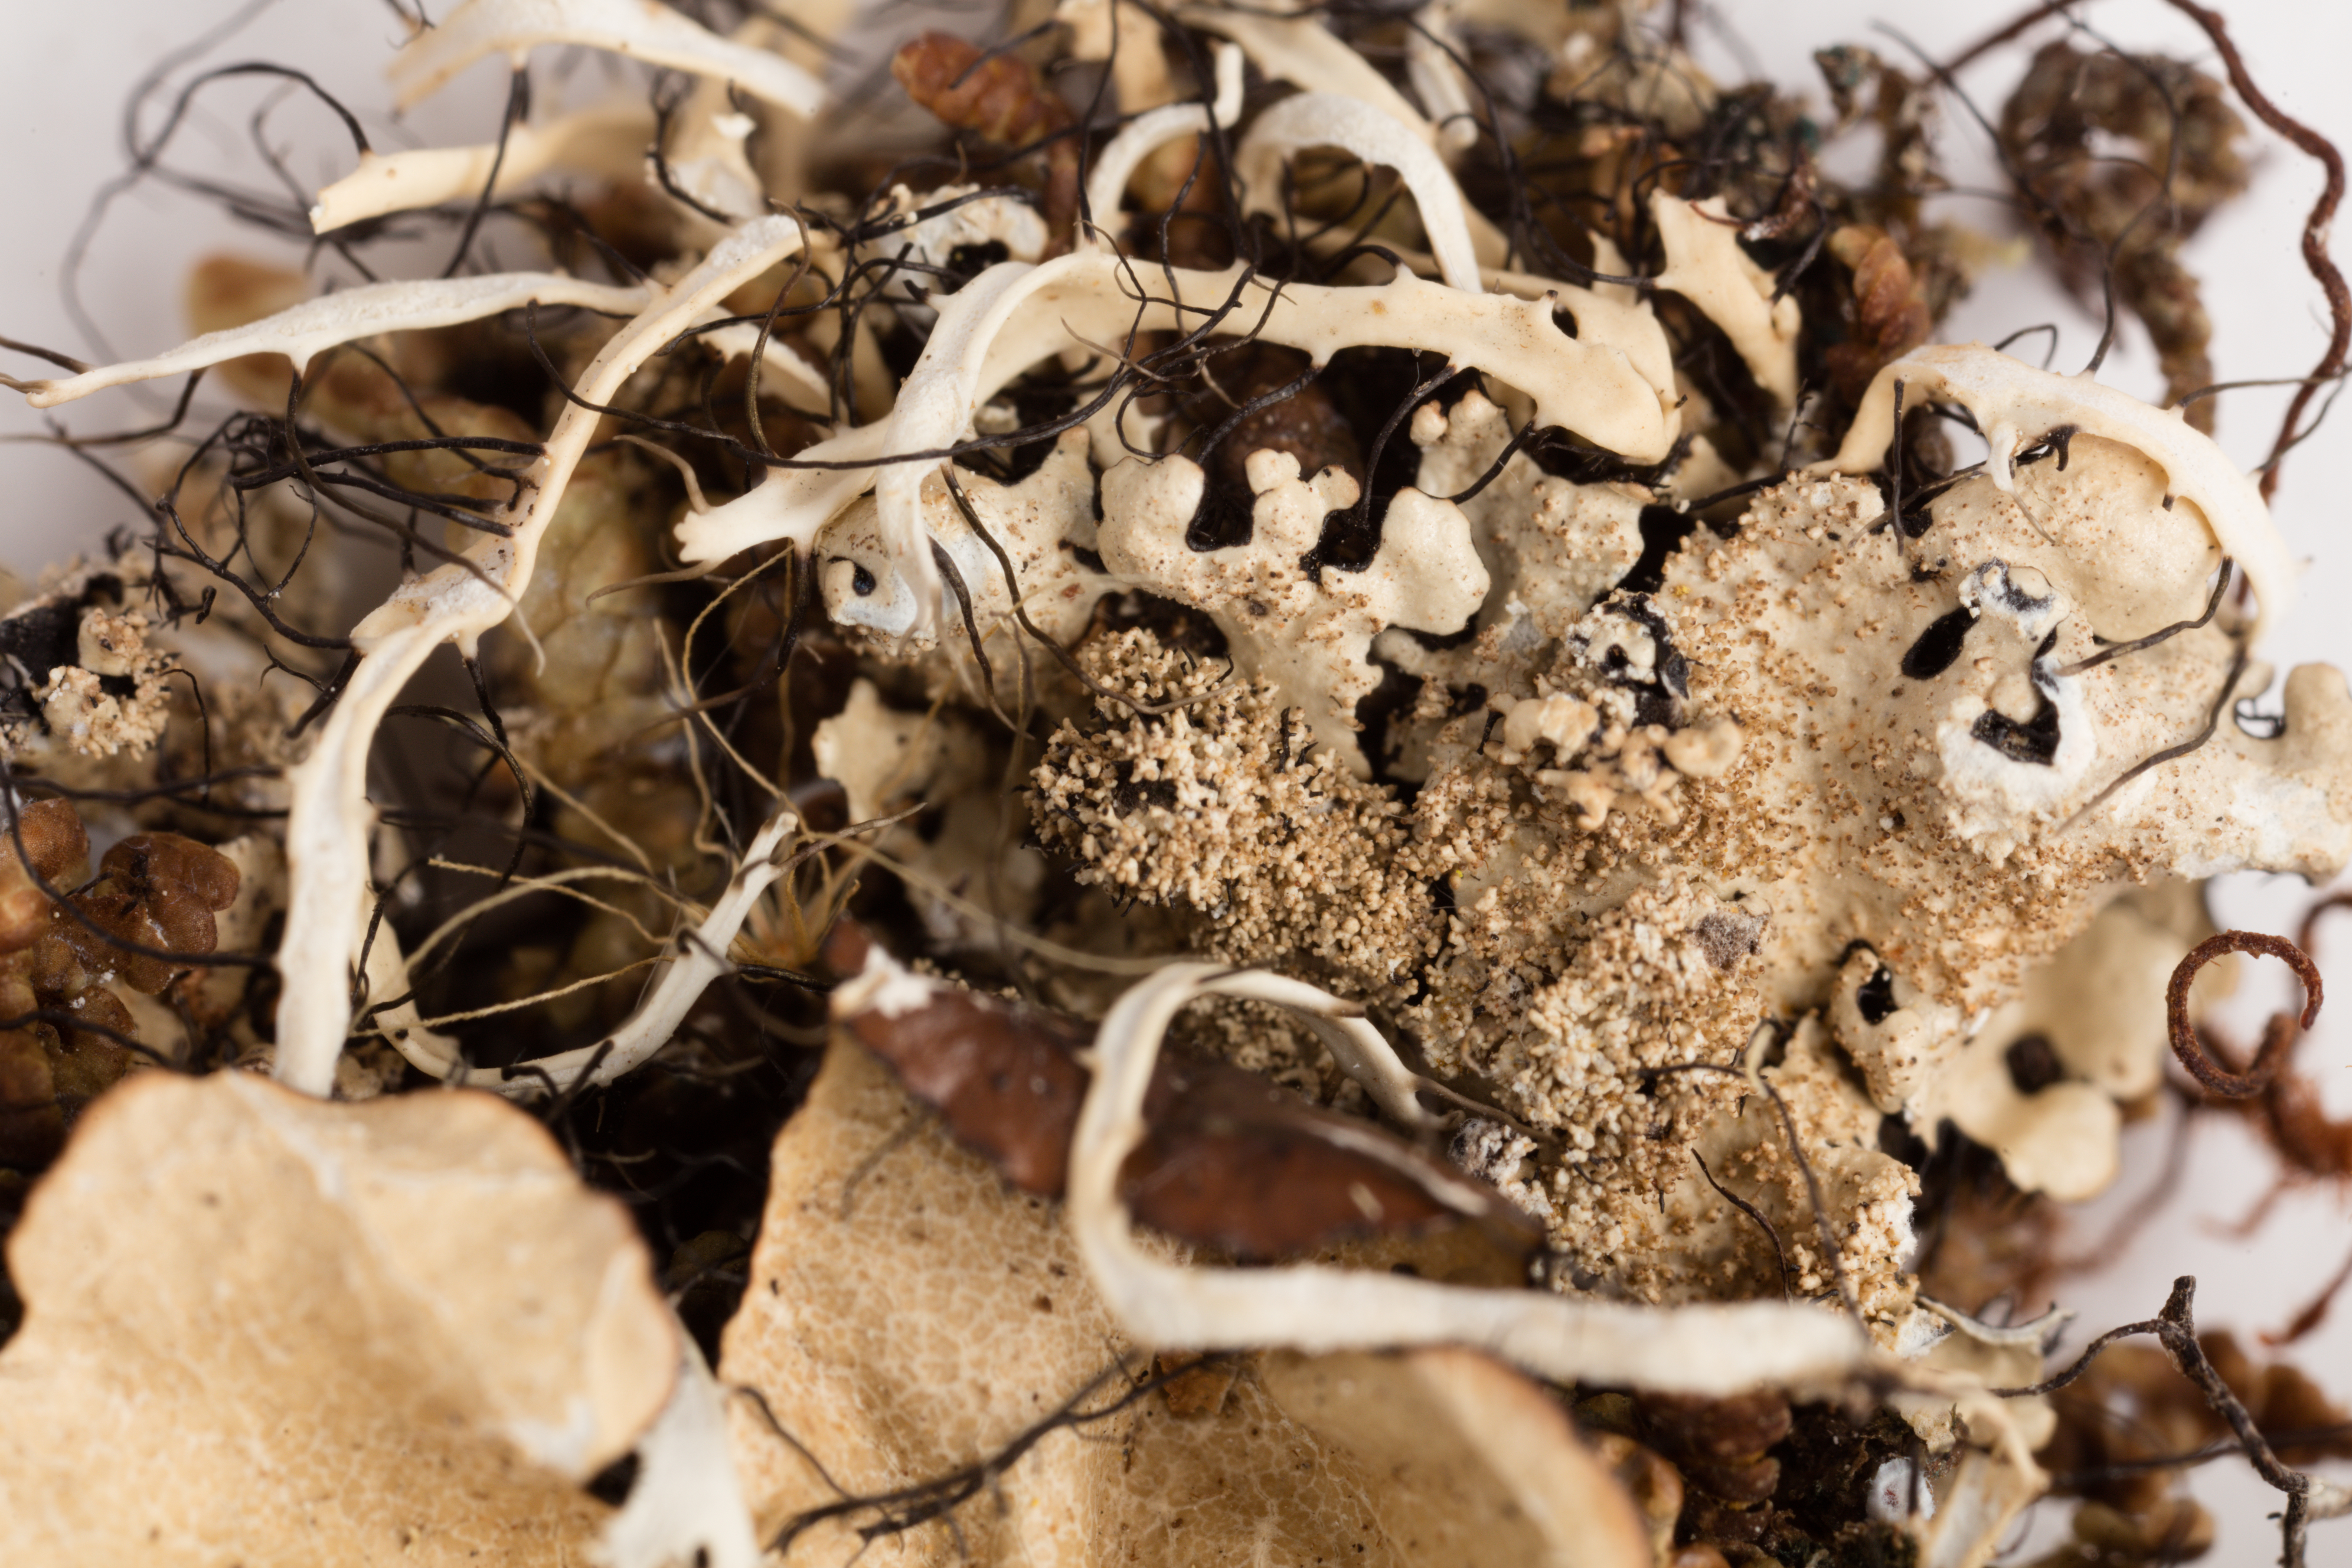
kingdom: Fungi
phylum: Ascomycota
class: Lecanoromycetes
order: Peltigerales
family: Lobariaceae
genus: Pseudocyphellaria
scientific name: Pseudocyphellaria episticta
